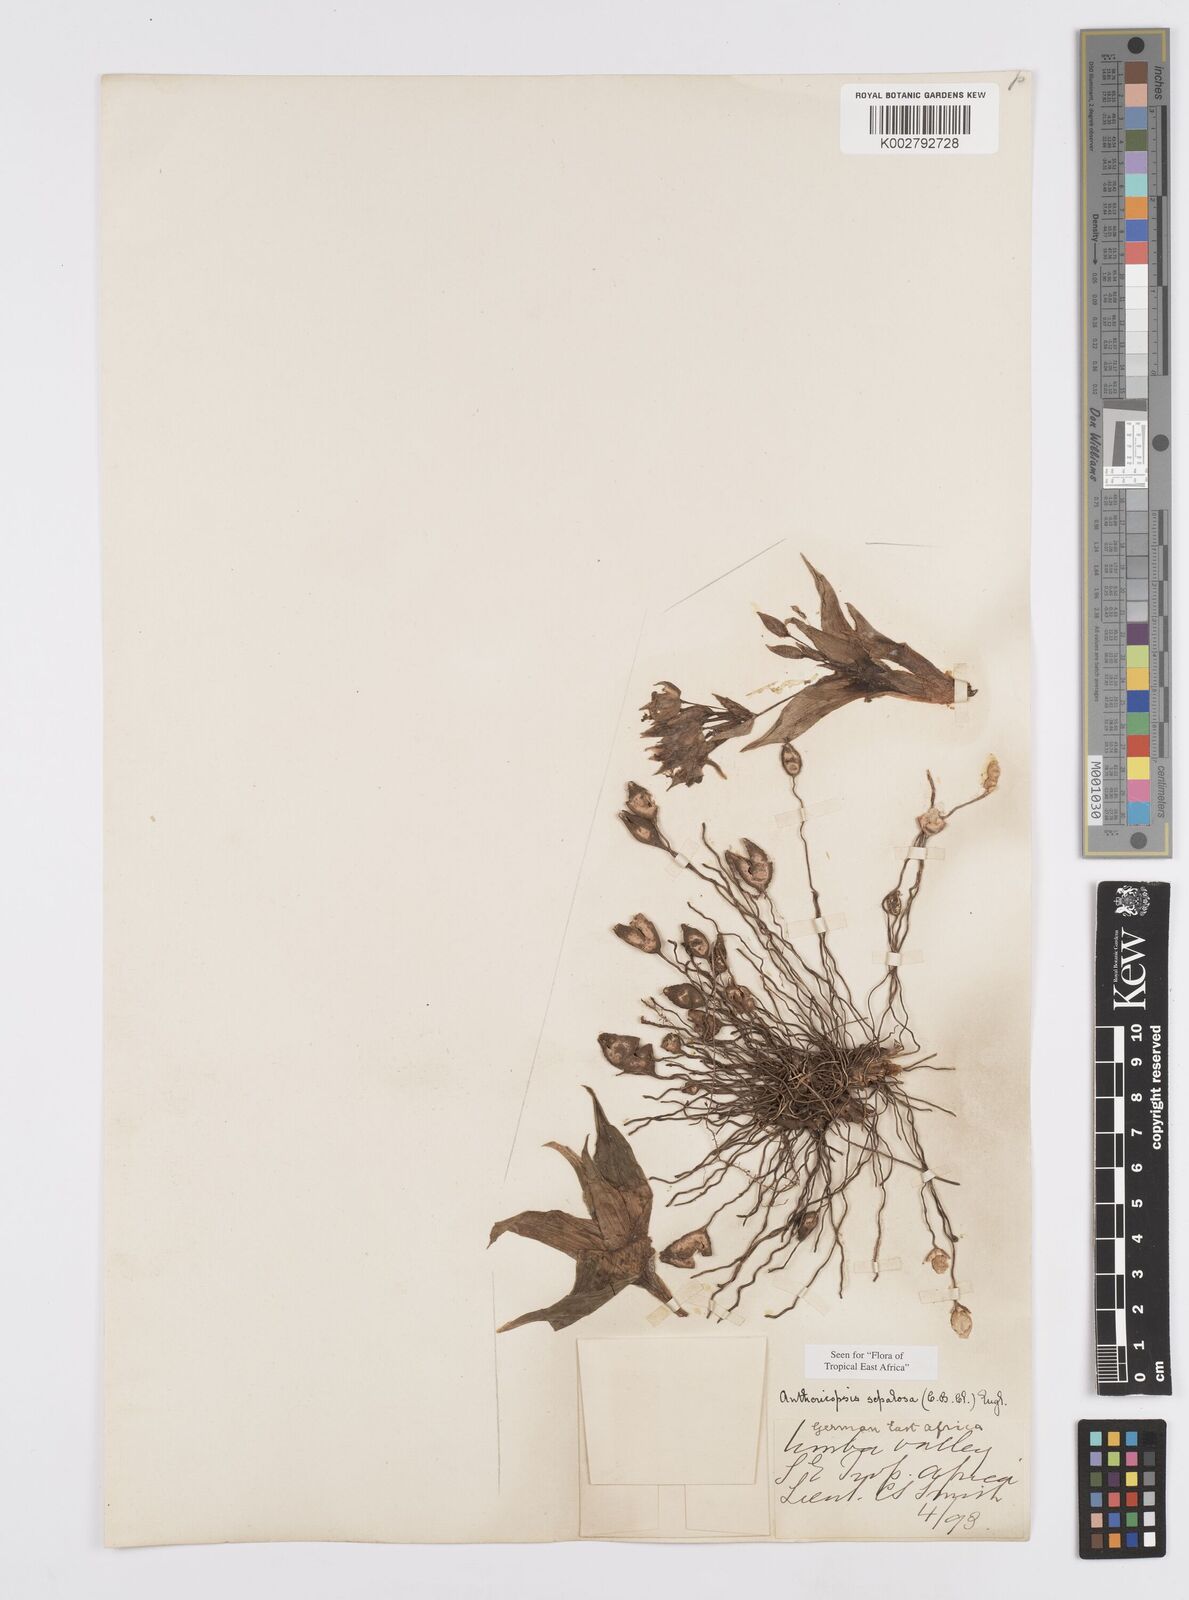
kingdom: Plantae
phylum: Tracheophyta
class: Liliopsida
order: Commelinales
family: Commelinaceae
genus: Anthericopsis
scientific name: Anthericopsis sepalosa
